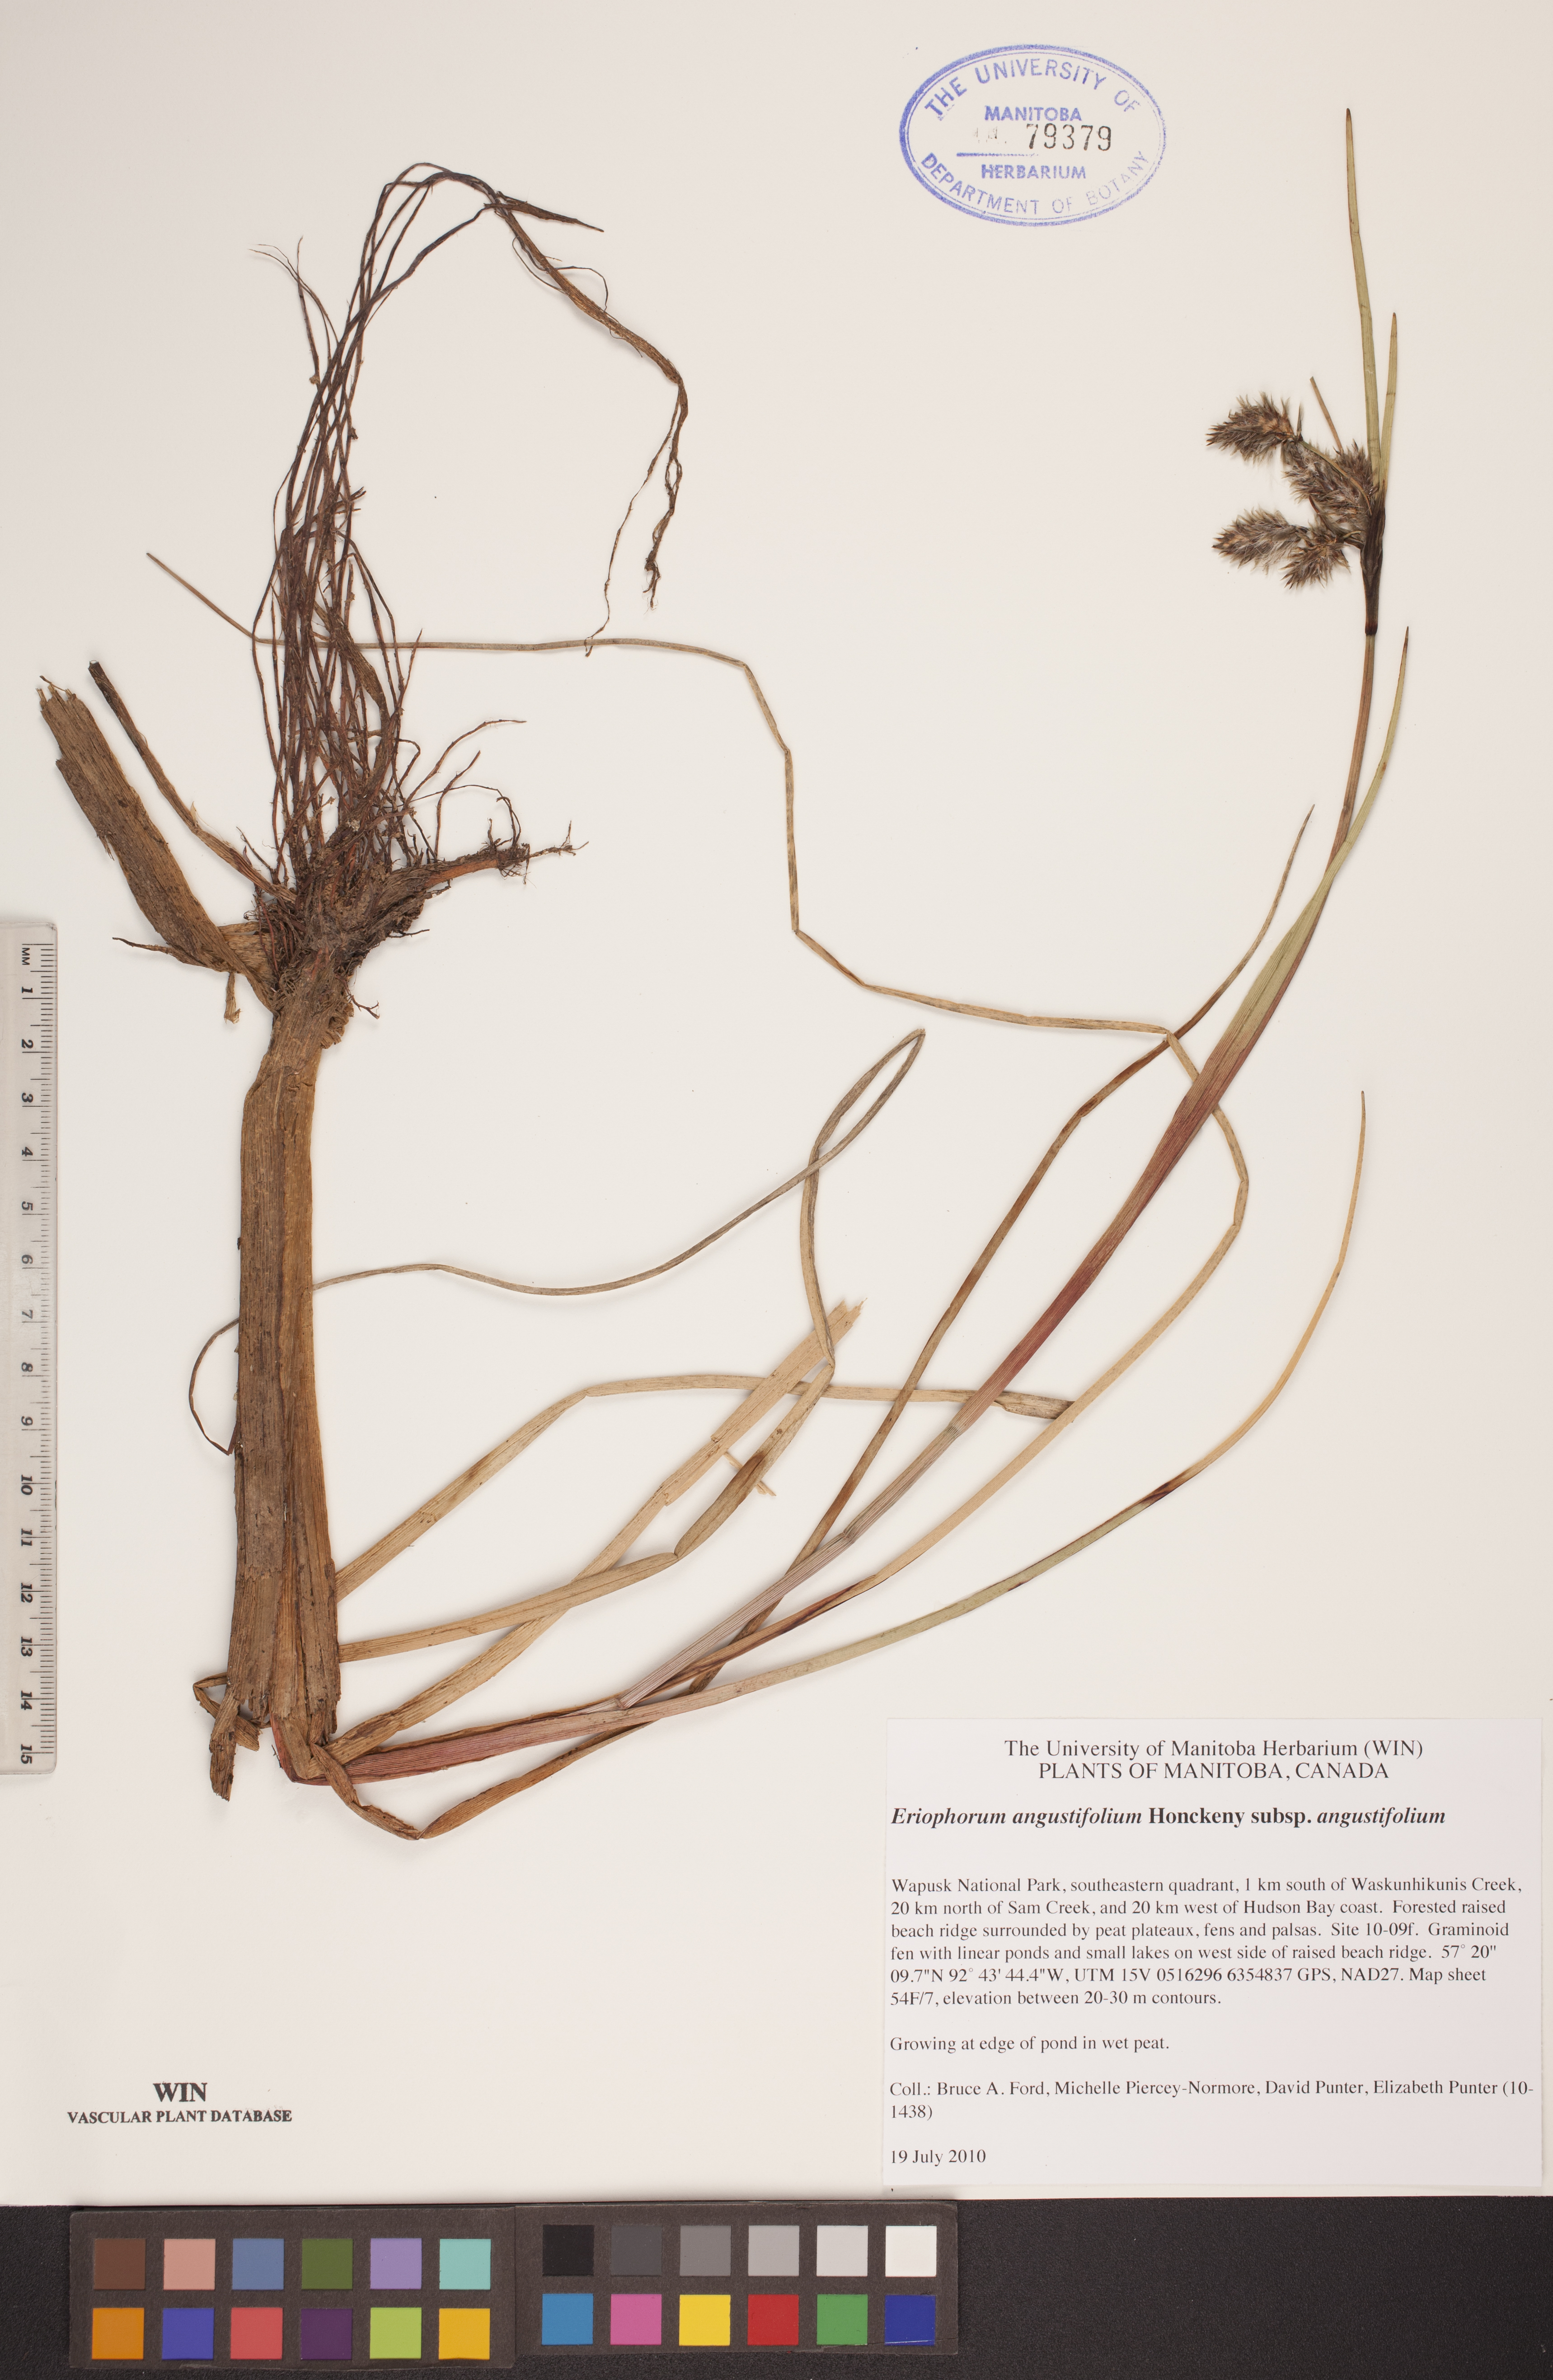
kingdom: Plantae
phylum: Tracheophyta
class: Liliopsida
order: Poales
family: Cyperaceae
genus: Eriophorum
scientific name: Eriophorum angustifolium
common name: Common cottongrass
